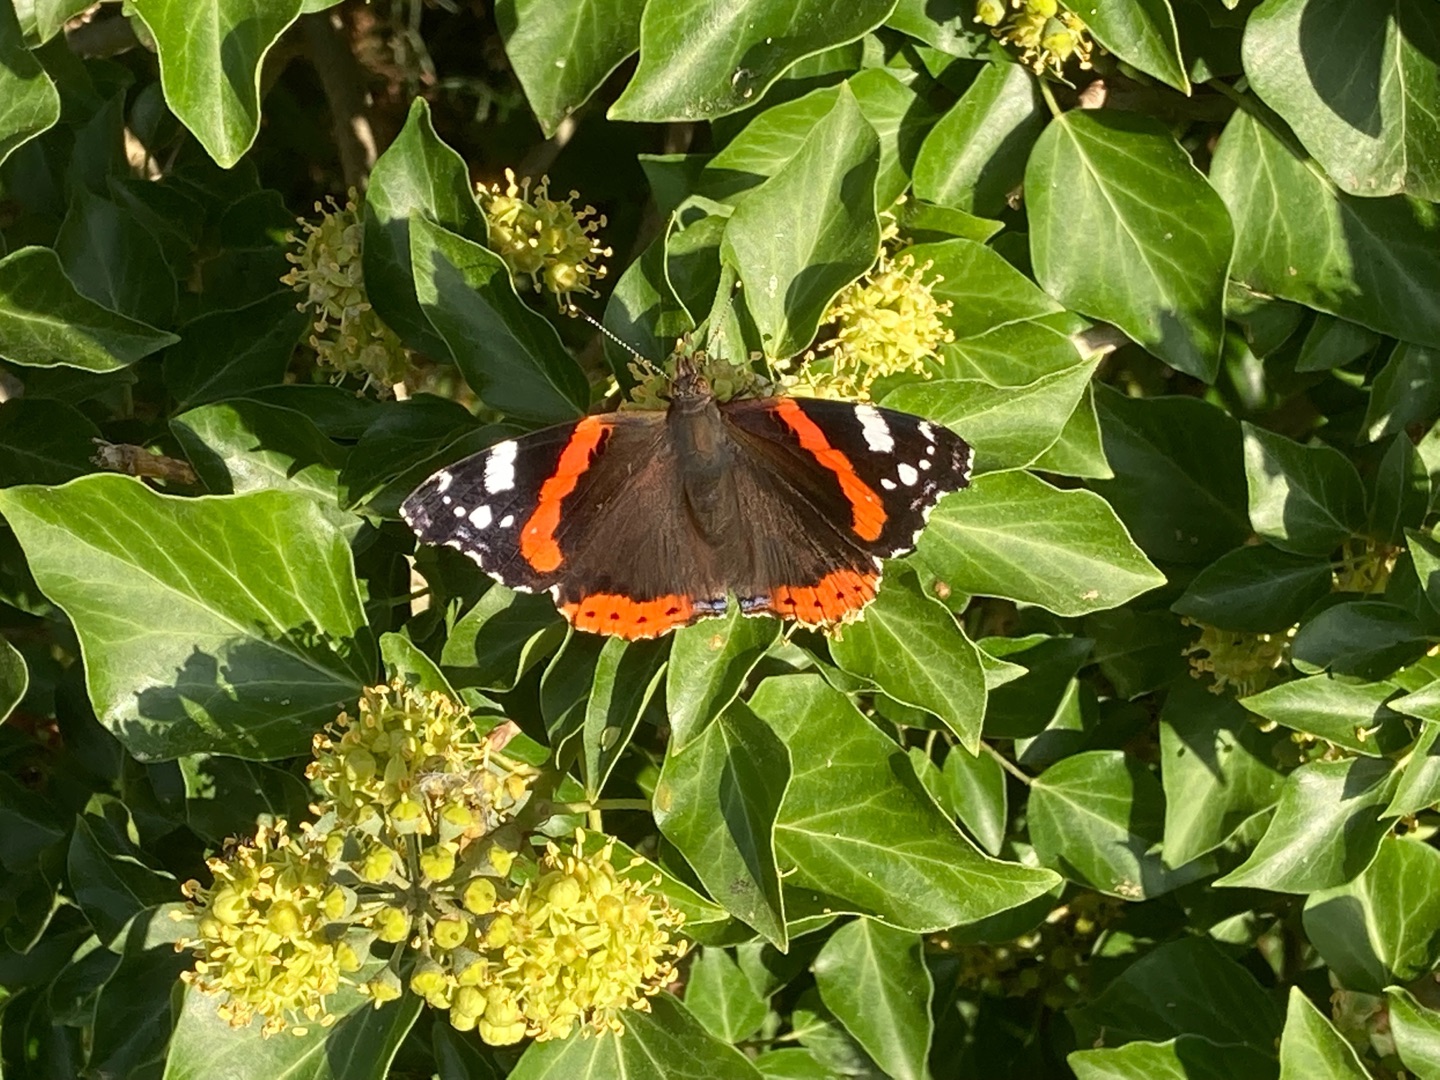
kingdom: Animalia
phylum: Arthropoda
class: Insecta
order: Lepidoptera
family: Nymphalidae
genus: Vanessa
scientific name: Vanessa atalanta
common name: Admiral
